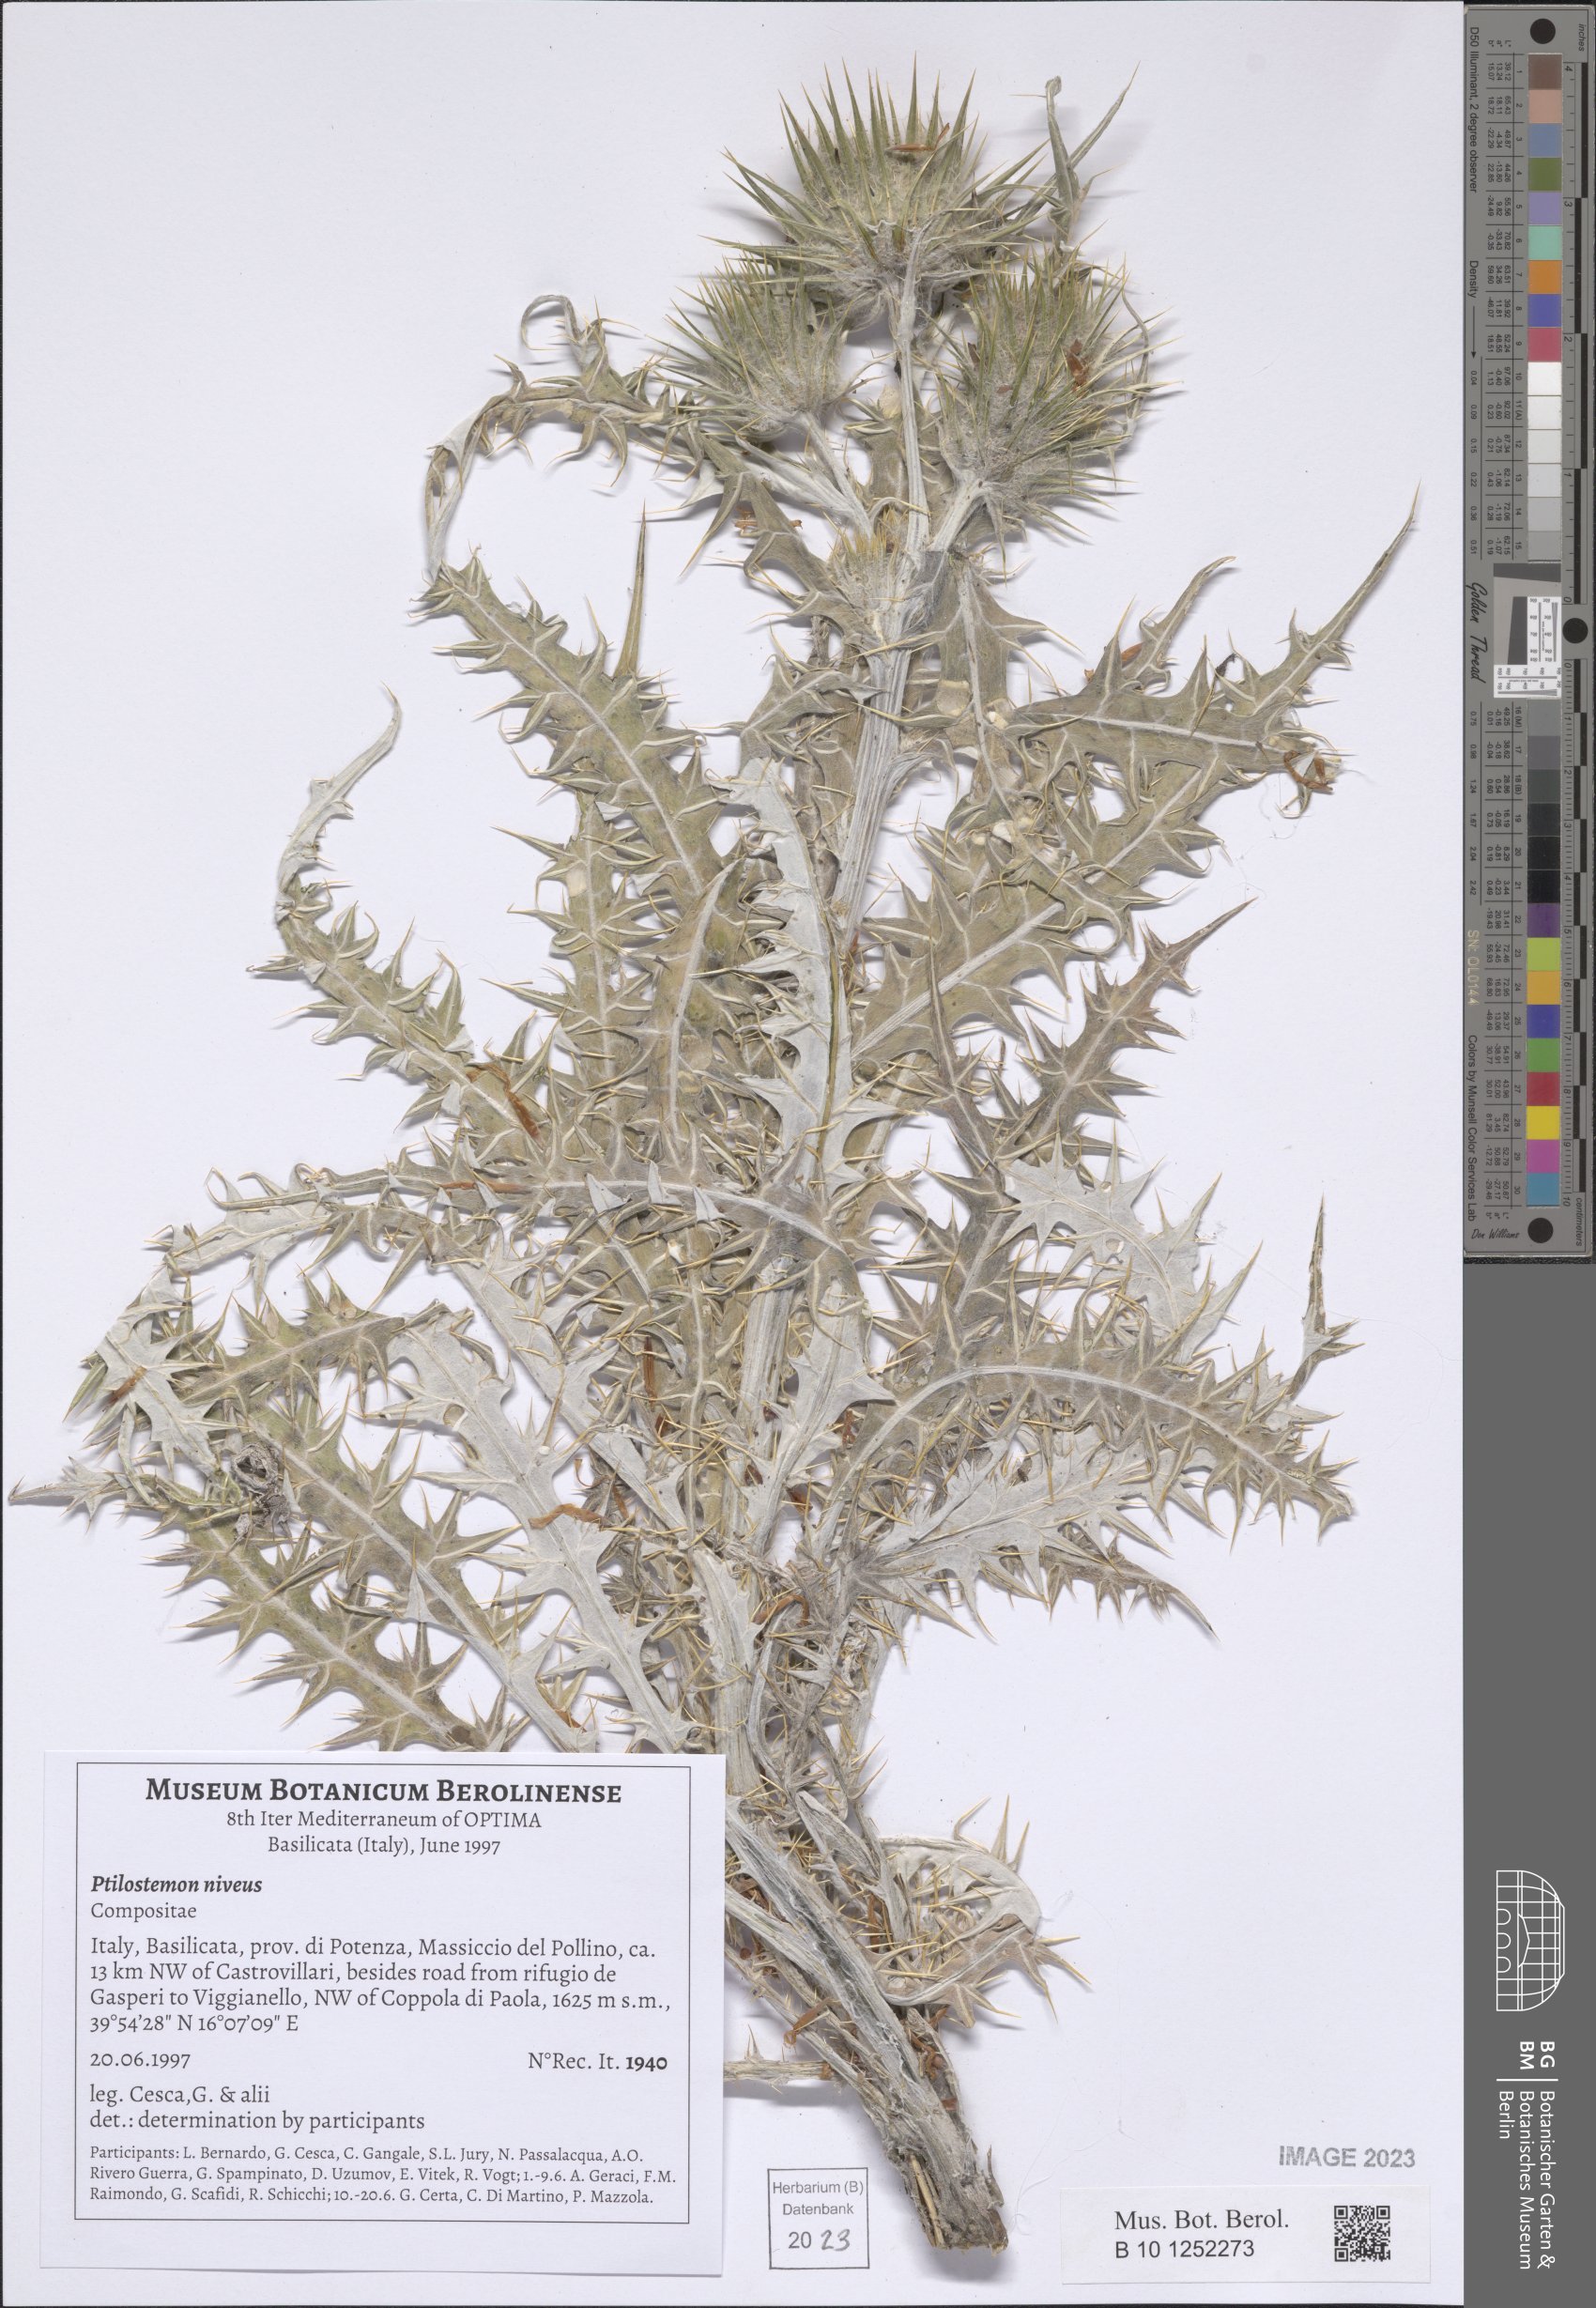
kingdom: Plantae
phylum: Tracheophyta
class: Magnoliopsida
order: Asterales
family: Asteraceae
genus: Ptilostemon
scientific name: Ptilostemon niveus
